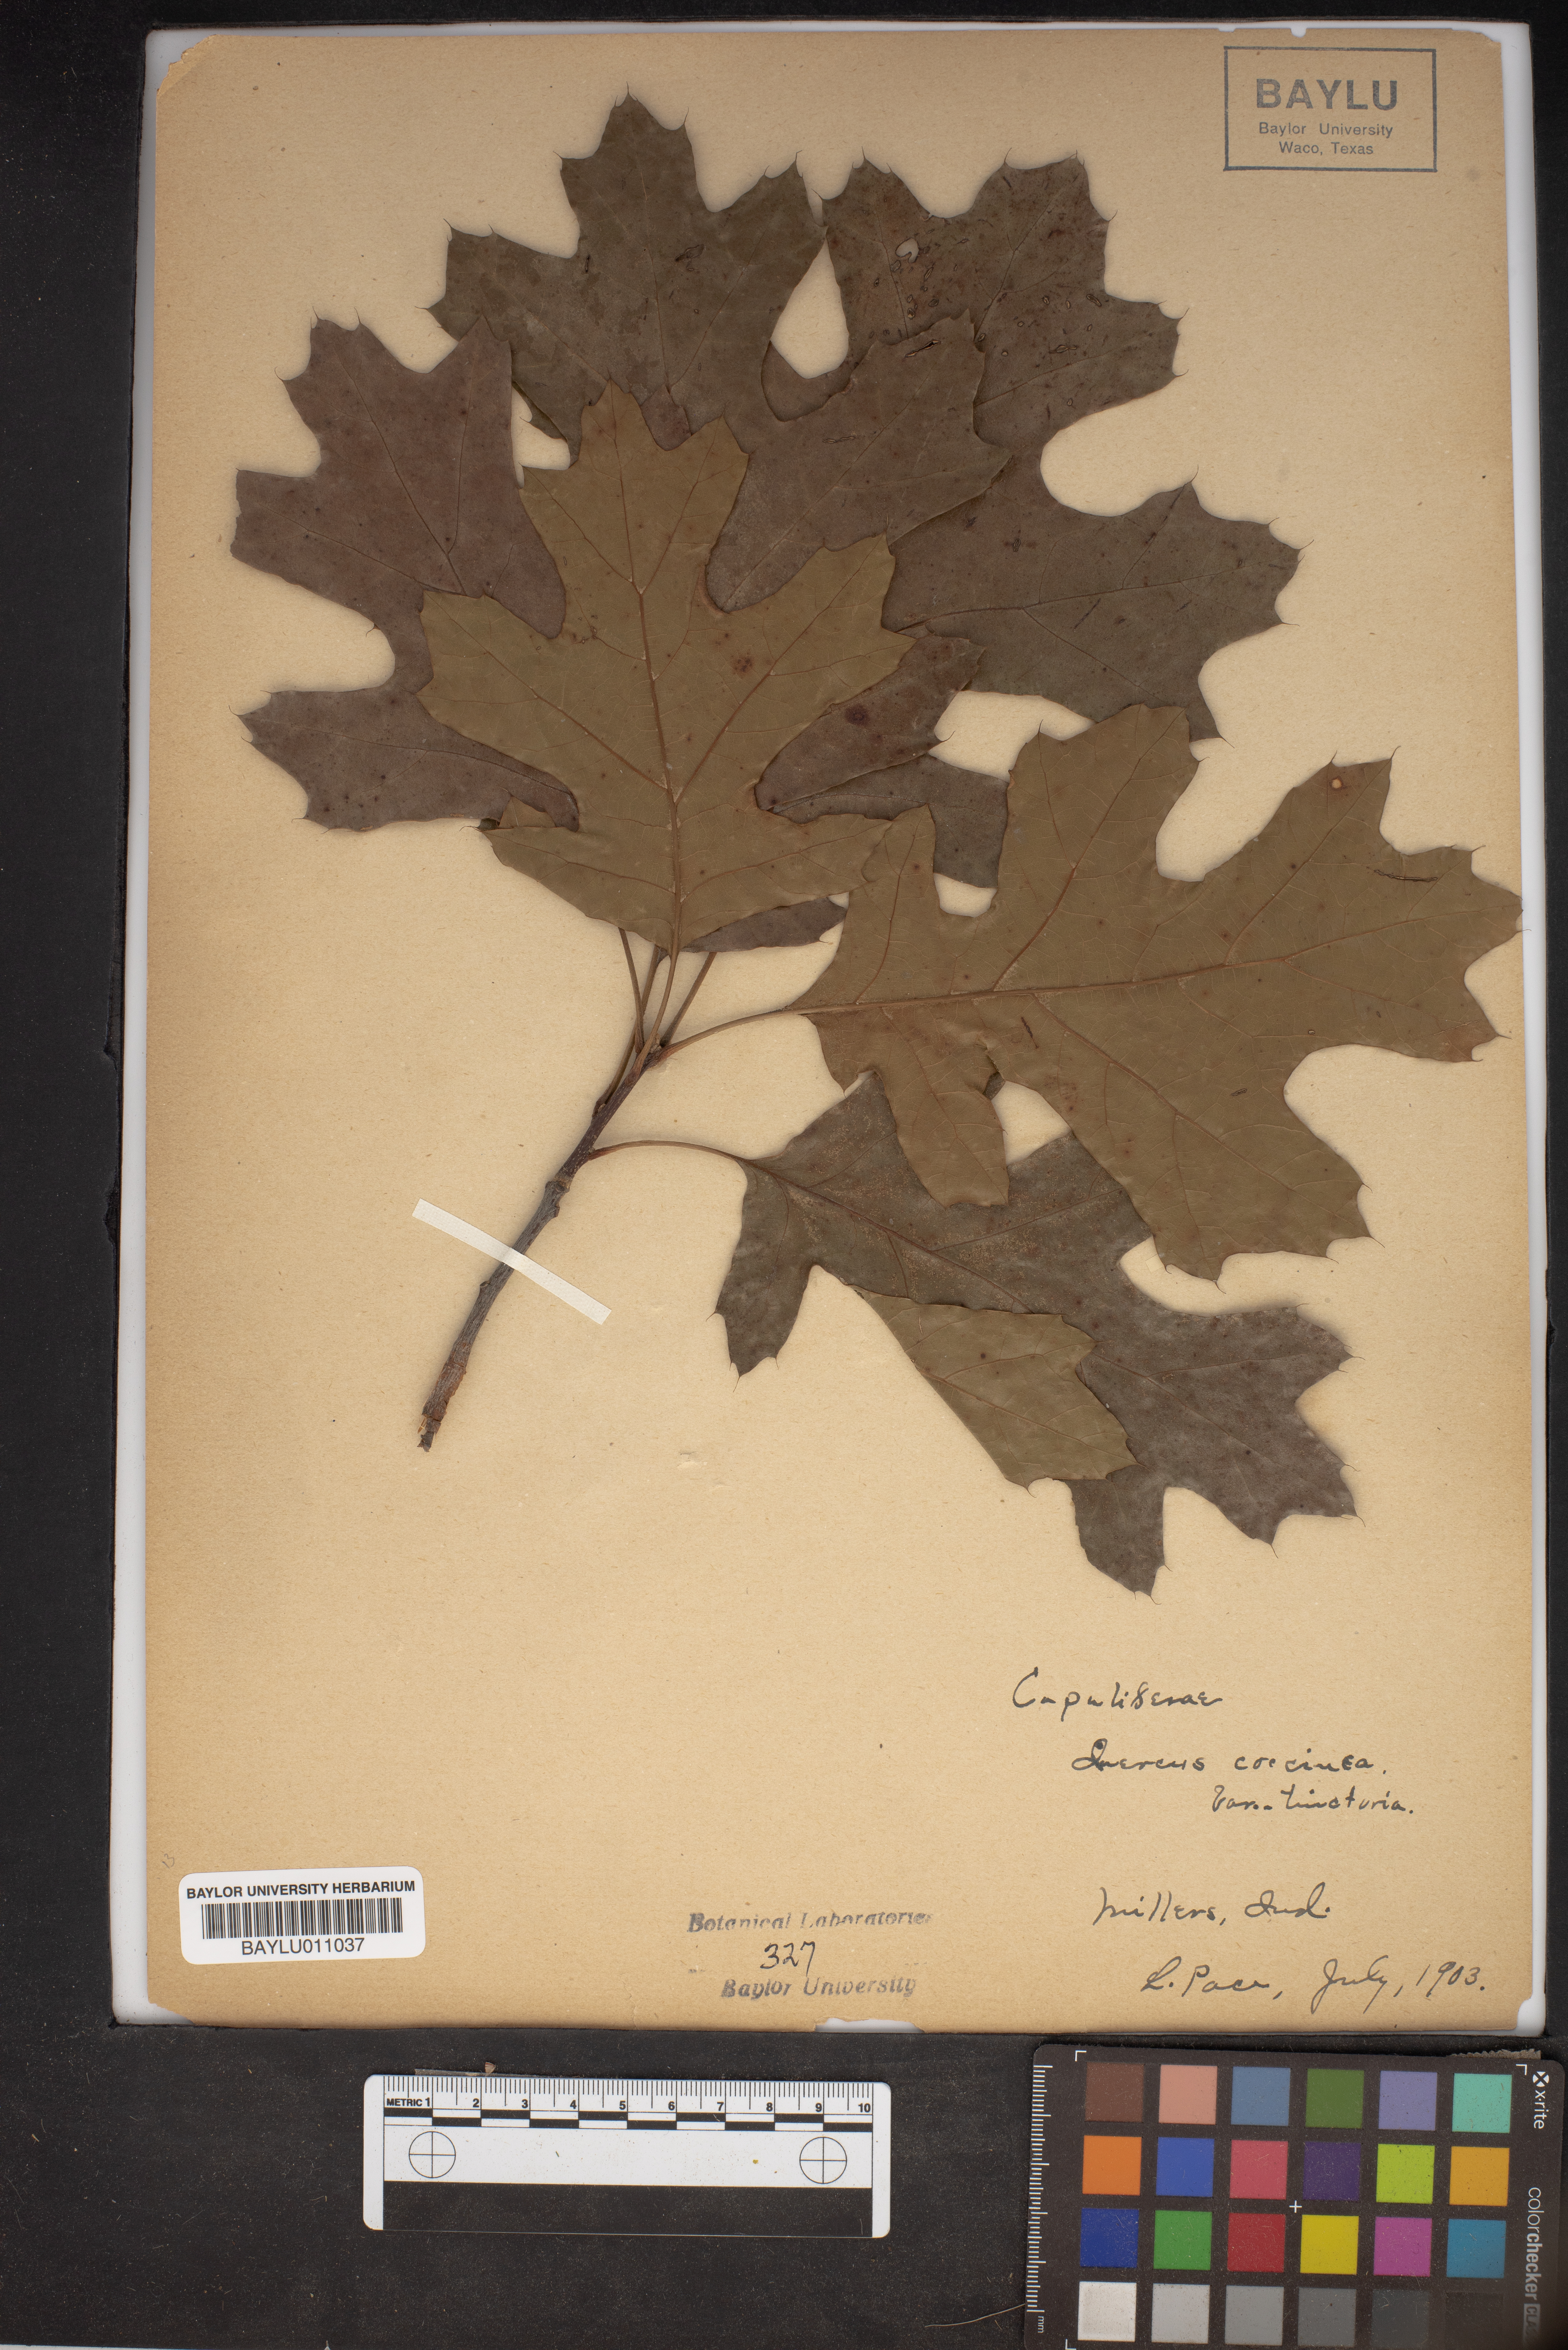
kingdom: Plantae
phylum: Tracheophyta
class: Magnoliopsida
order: Fagales
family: Fagaceae
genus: Quercus
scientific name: Quercus velutina
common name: Black oak
